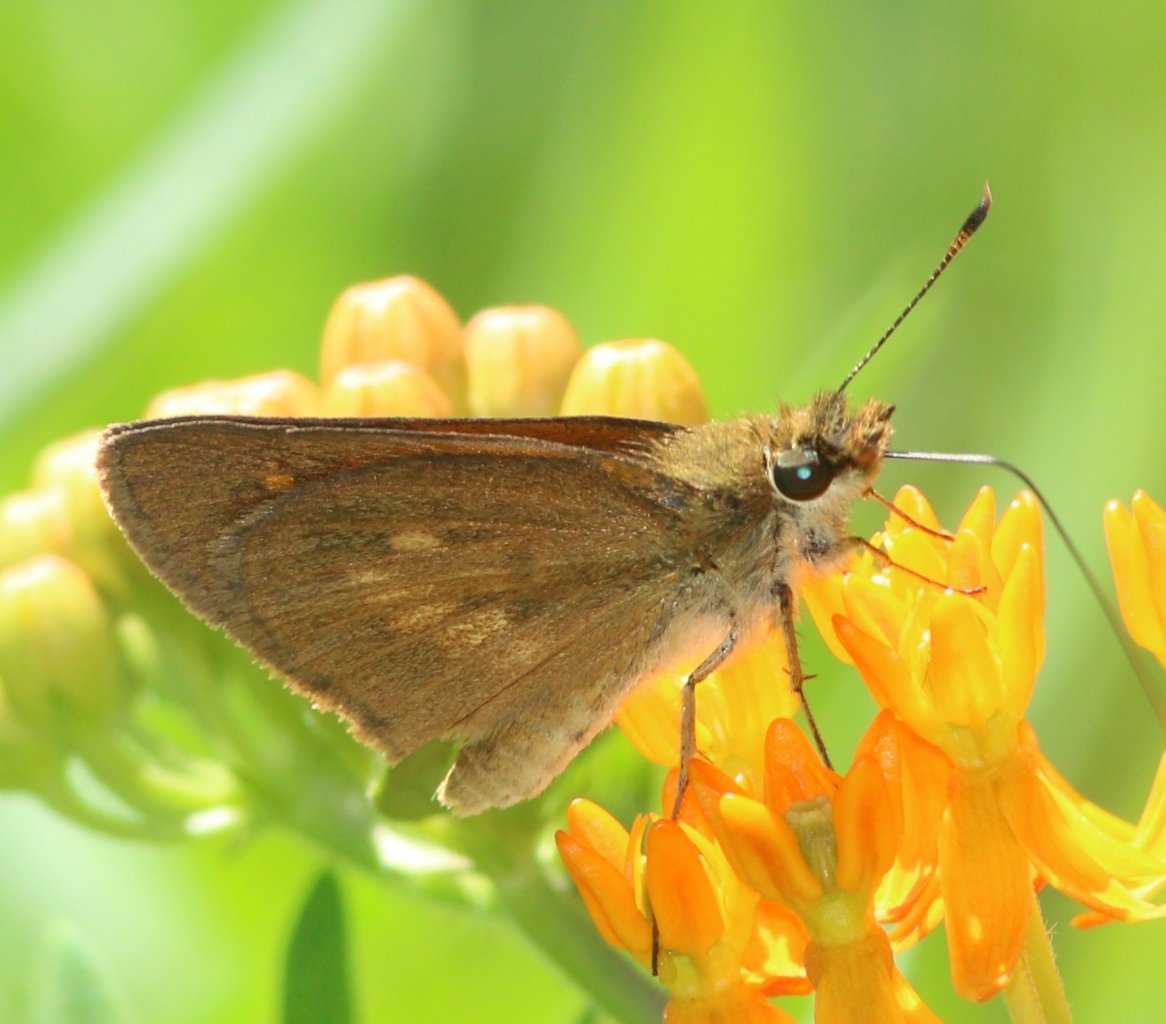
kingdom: Animalia
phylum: Arthropoda
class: Insecta
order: Lepidoptera
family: Hesperiidae
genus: Poanes
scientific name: Poanes viator
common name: Broad-winged Skipper
